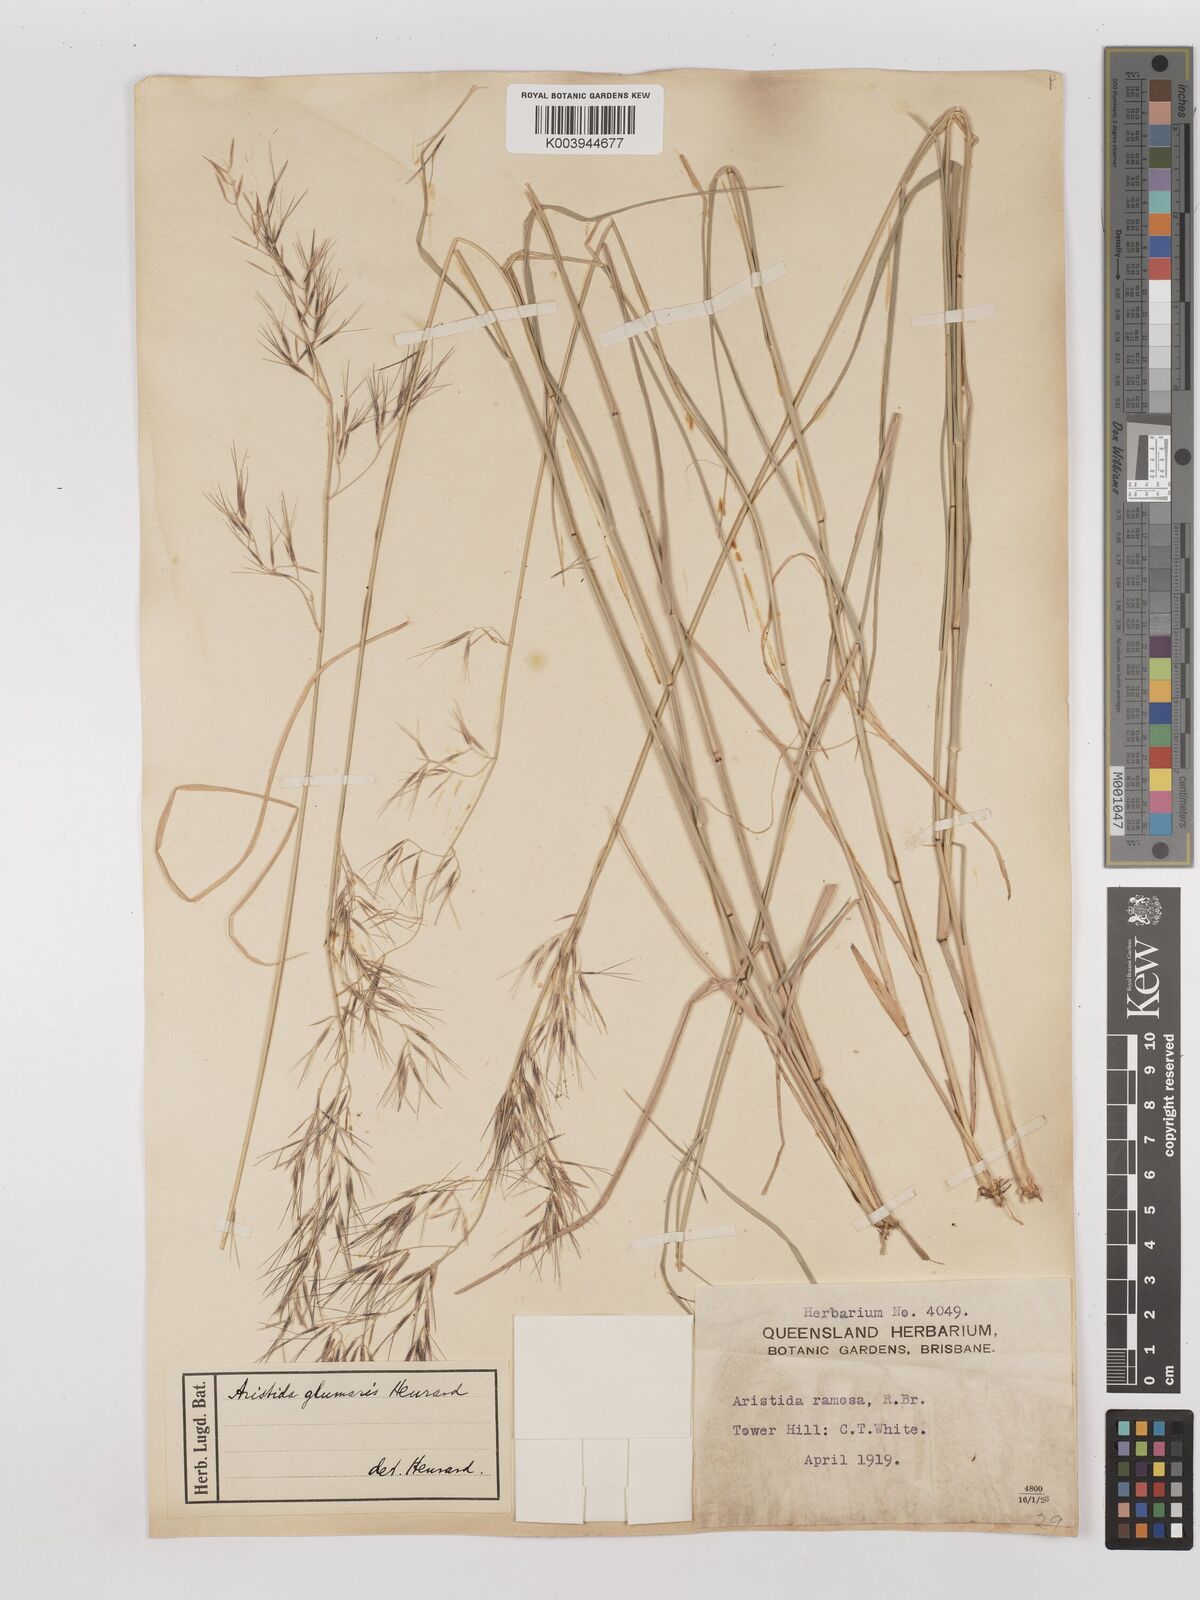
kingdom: Plantae
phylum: Tracheophyta
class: Liliopsida
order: Poales
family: Poaceae
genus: Aristida
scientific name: Aristida calycina
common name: Dark wire grass
